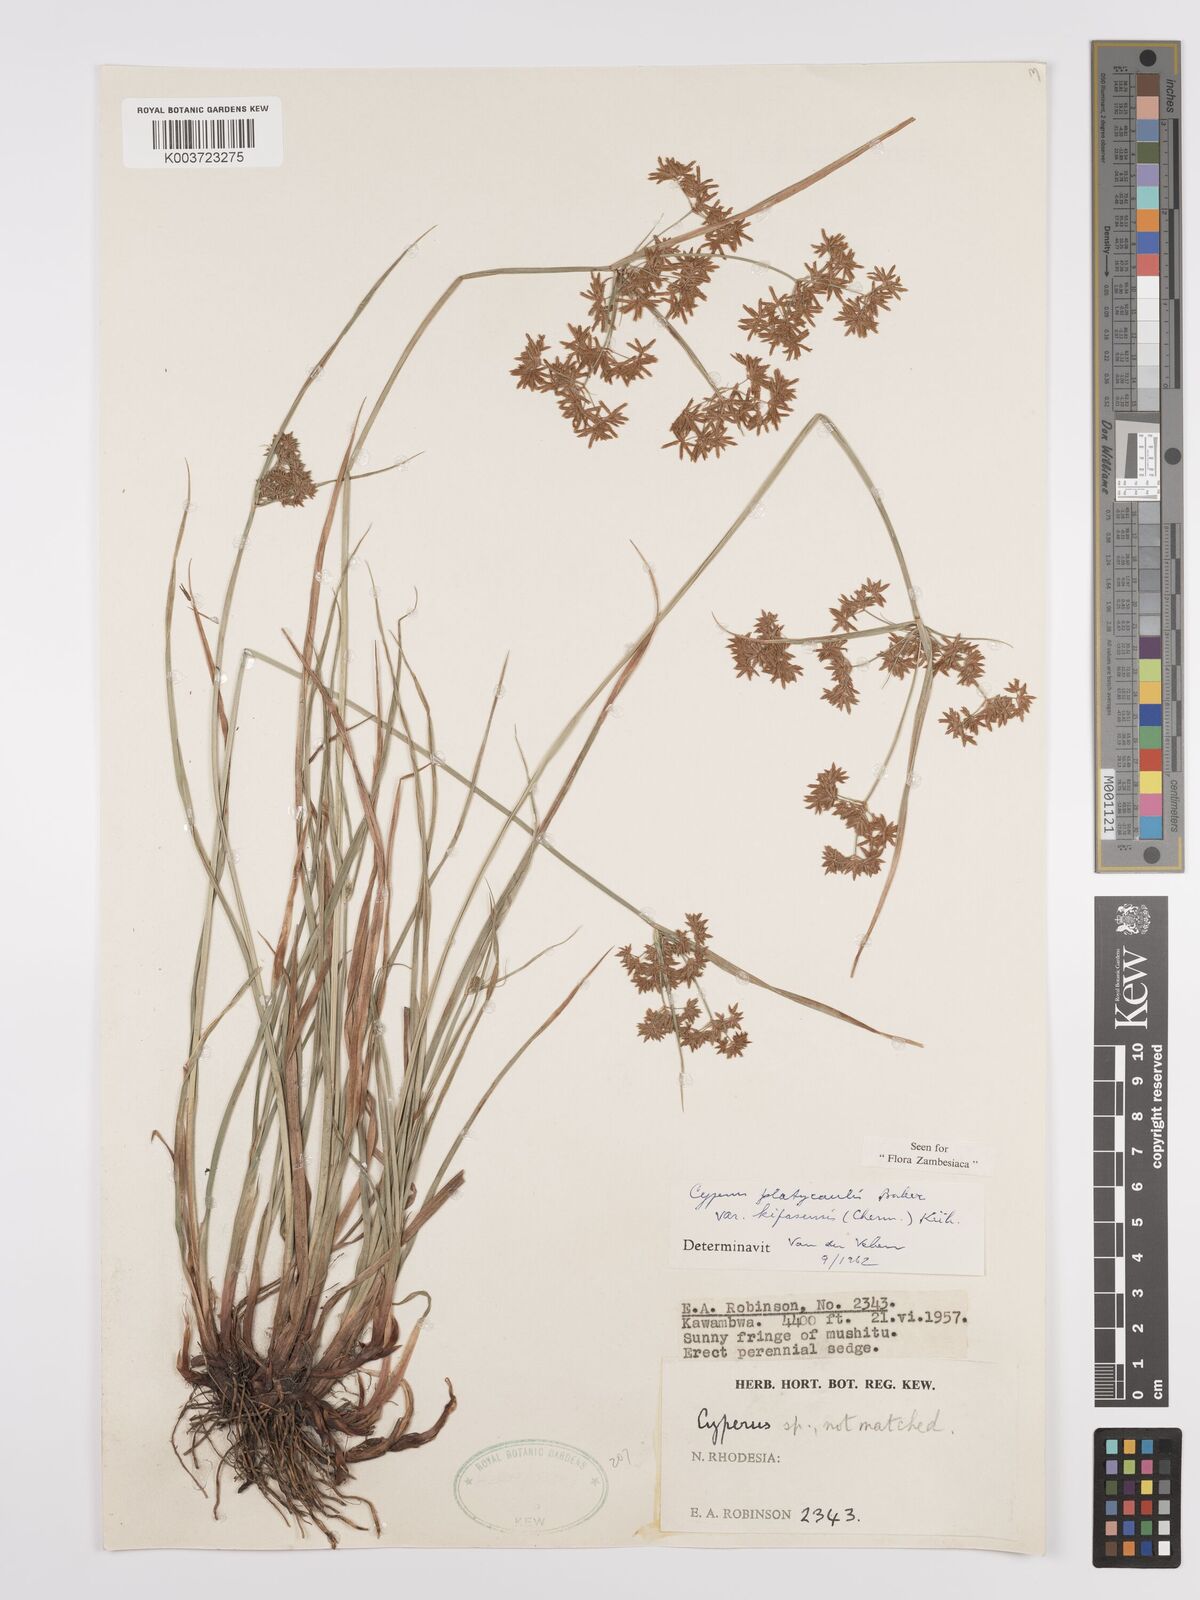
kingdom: Plantae
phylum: Tracheophyta
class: Liliopsida
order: Poales
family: Cyperaceae
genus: Cyperus
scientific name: Cyperus kipasensis
